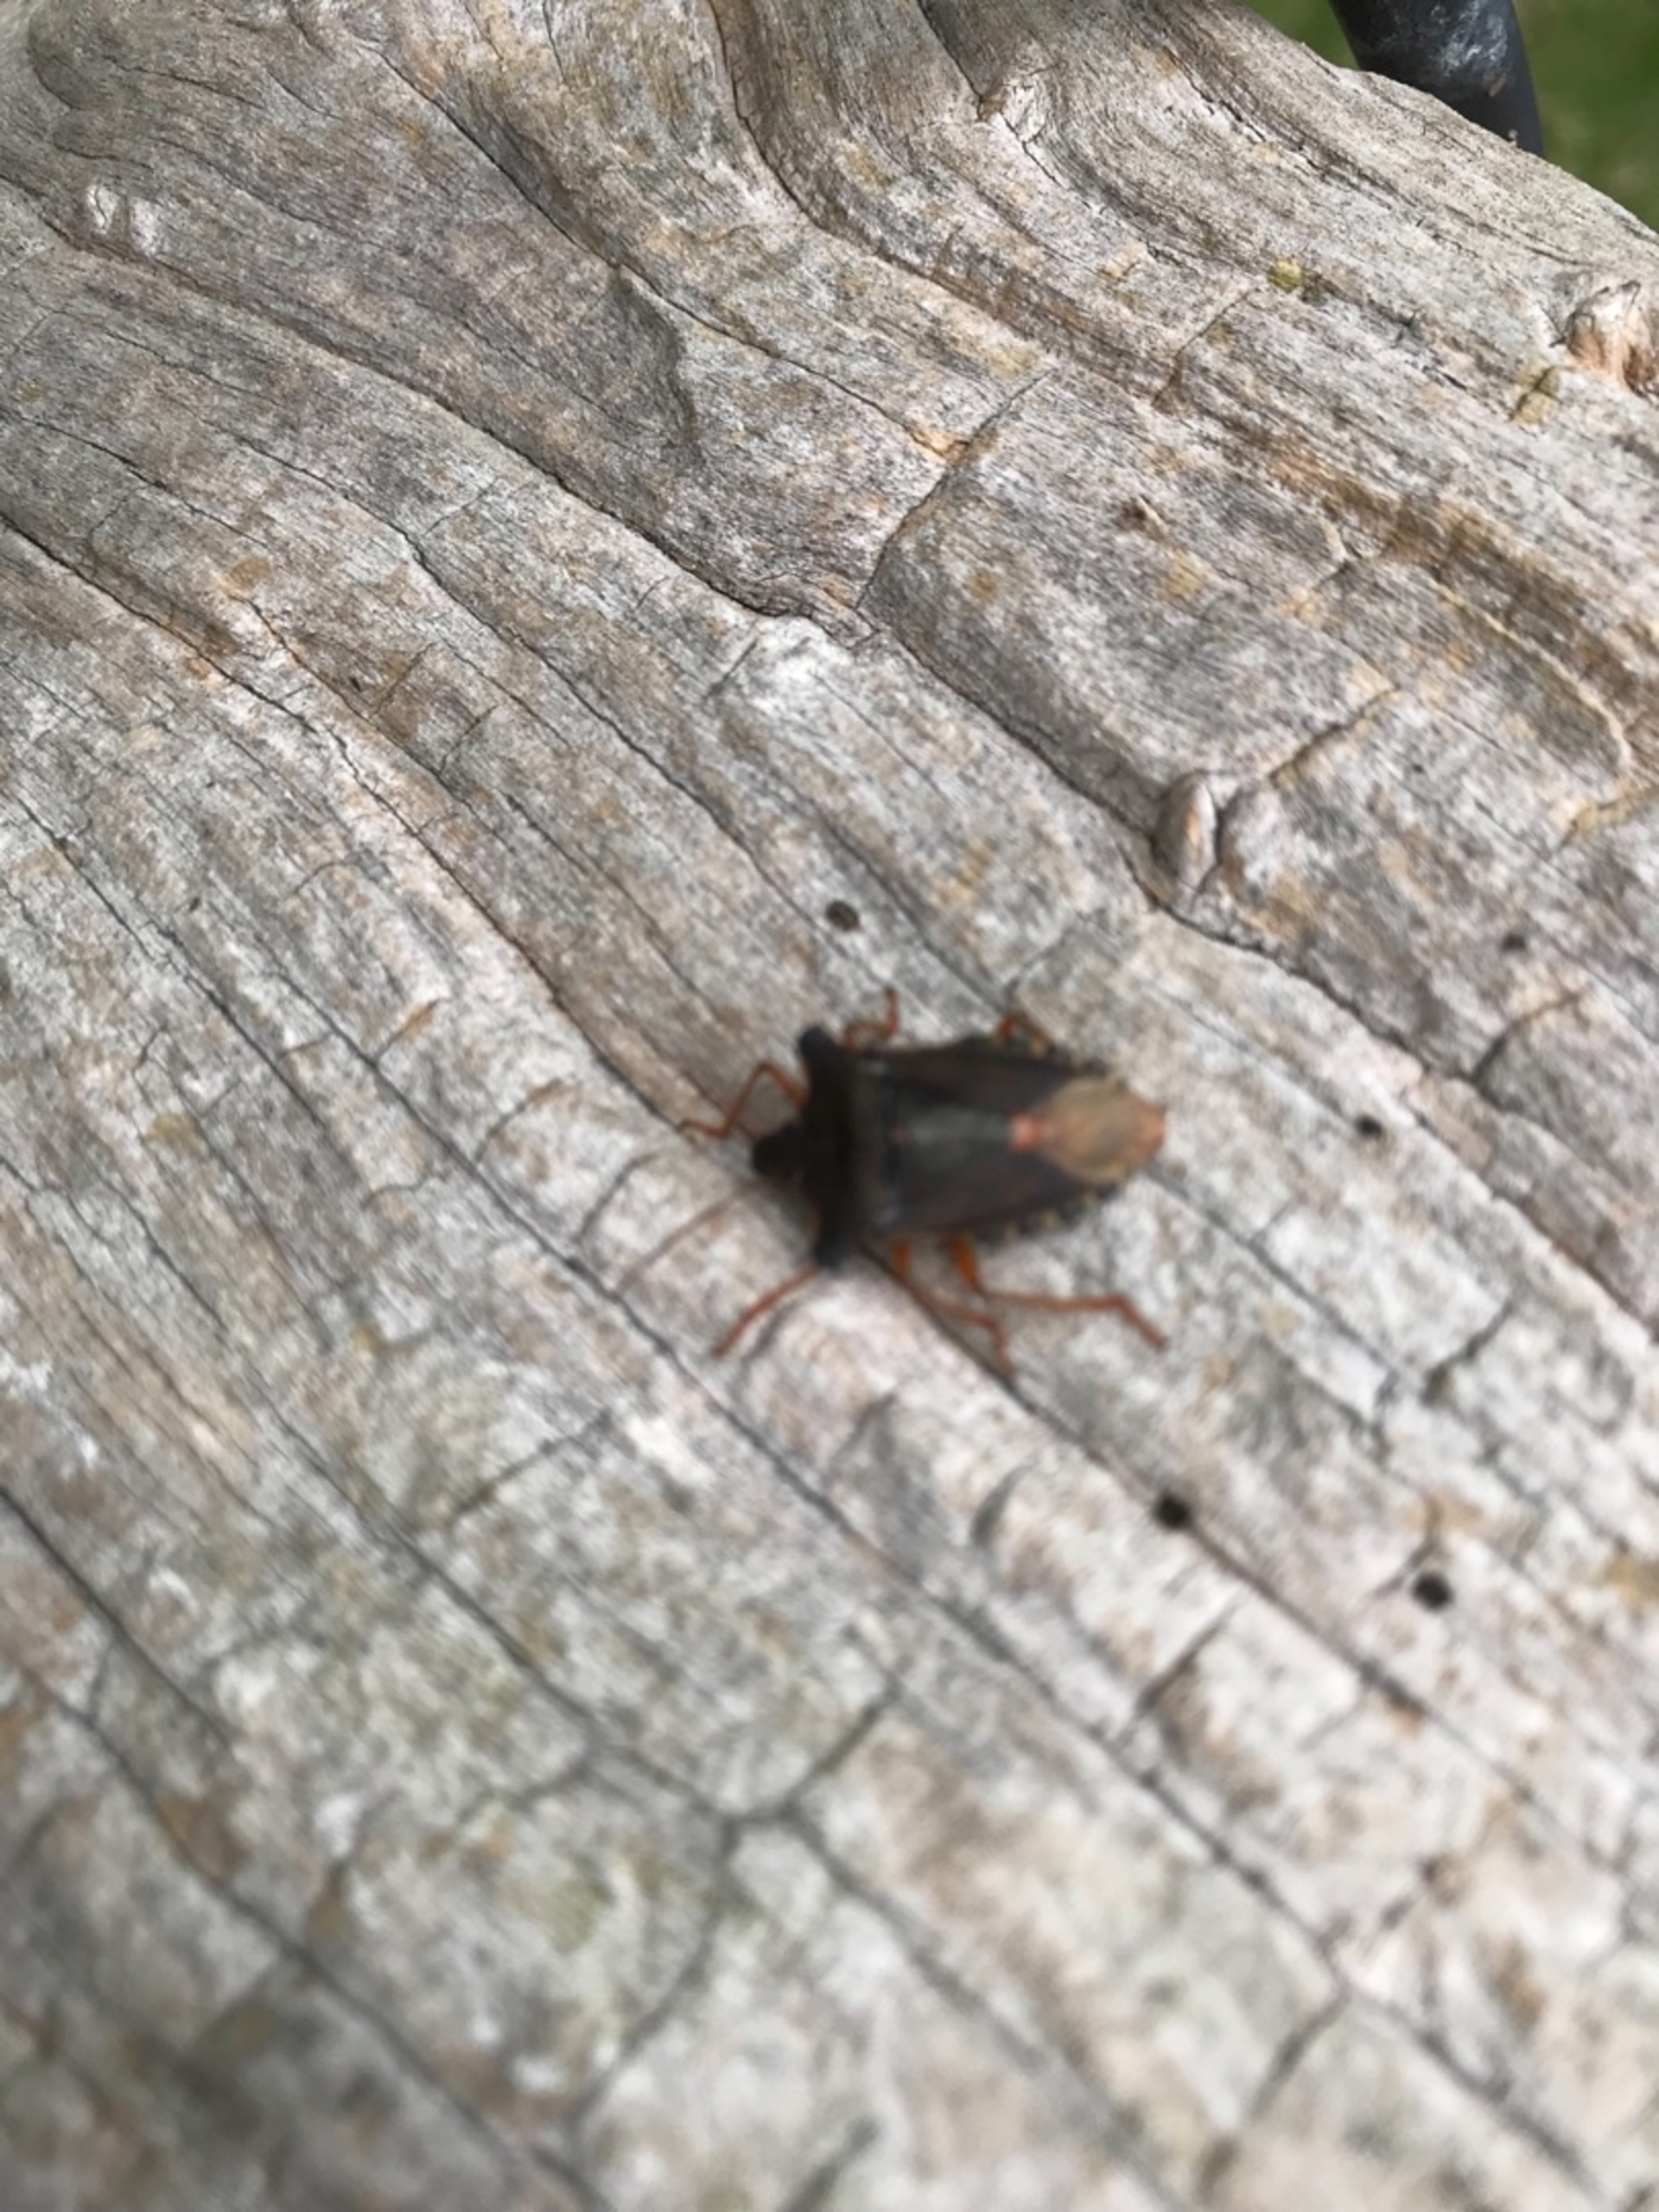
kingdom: Animalia
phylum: Arthropoda
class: Insecta
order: Hemiptera
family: Pentatomidae
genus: Pentatoma
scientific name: Pentatoma rufipes
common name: Rødbenet bredtæge
